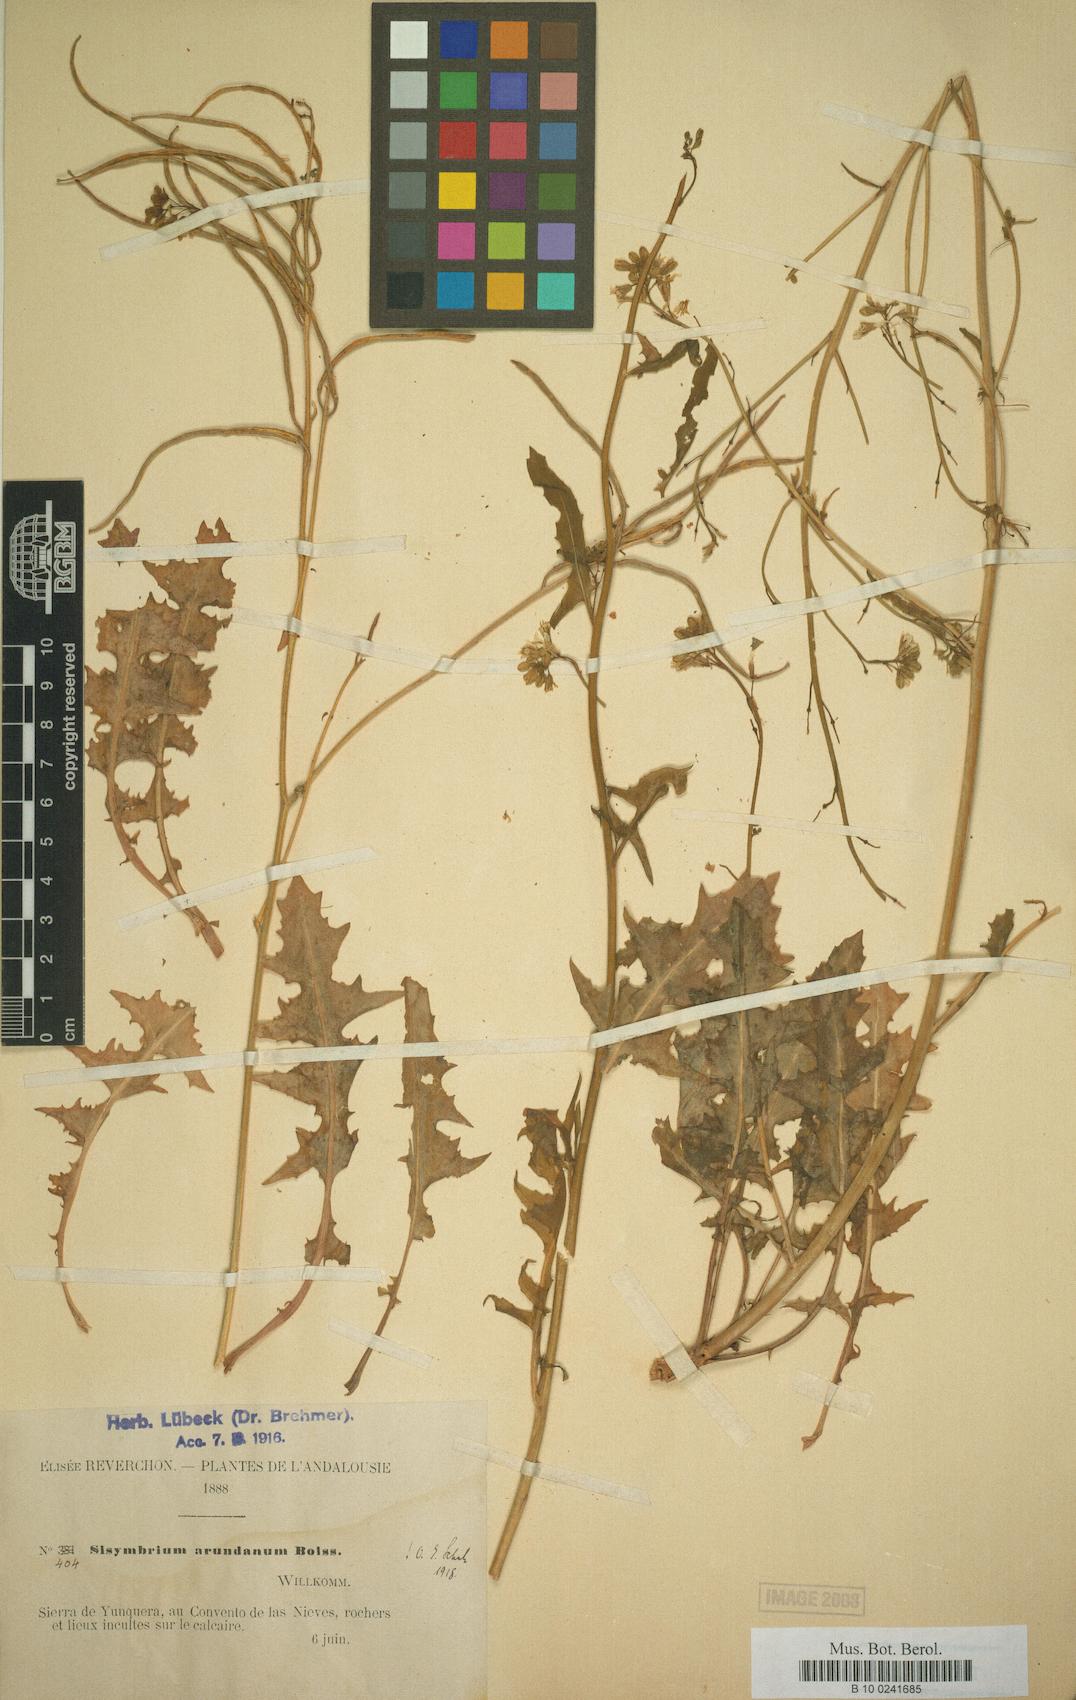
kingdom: Plantae
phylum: Tracheophyta
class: Magnoliopsida
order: Brassicales
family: Brassicaceae
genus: Sisymbrium
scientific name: Sisymbrium crassifolium
